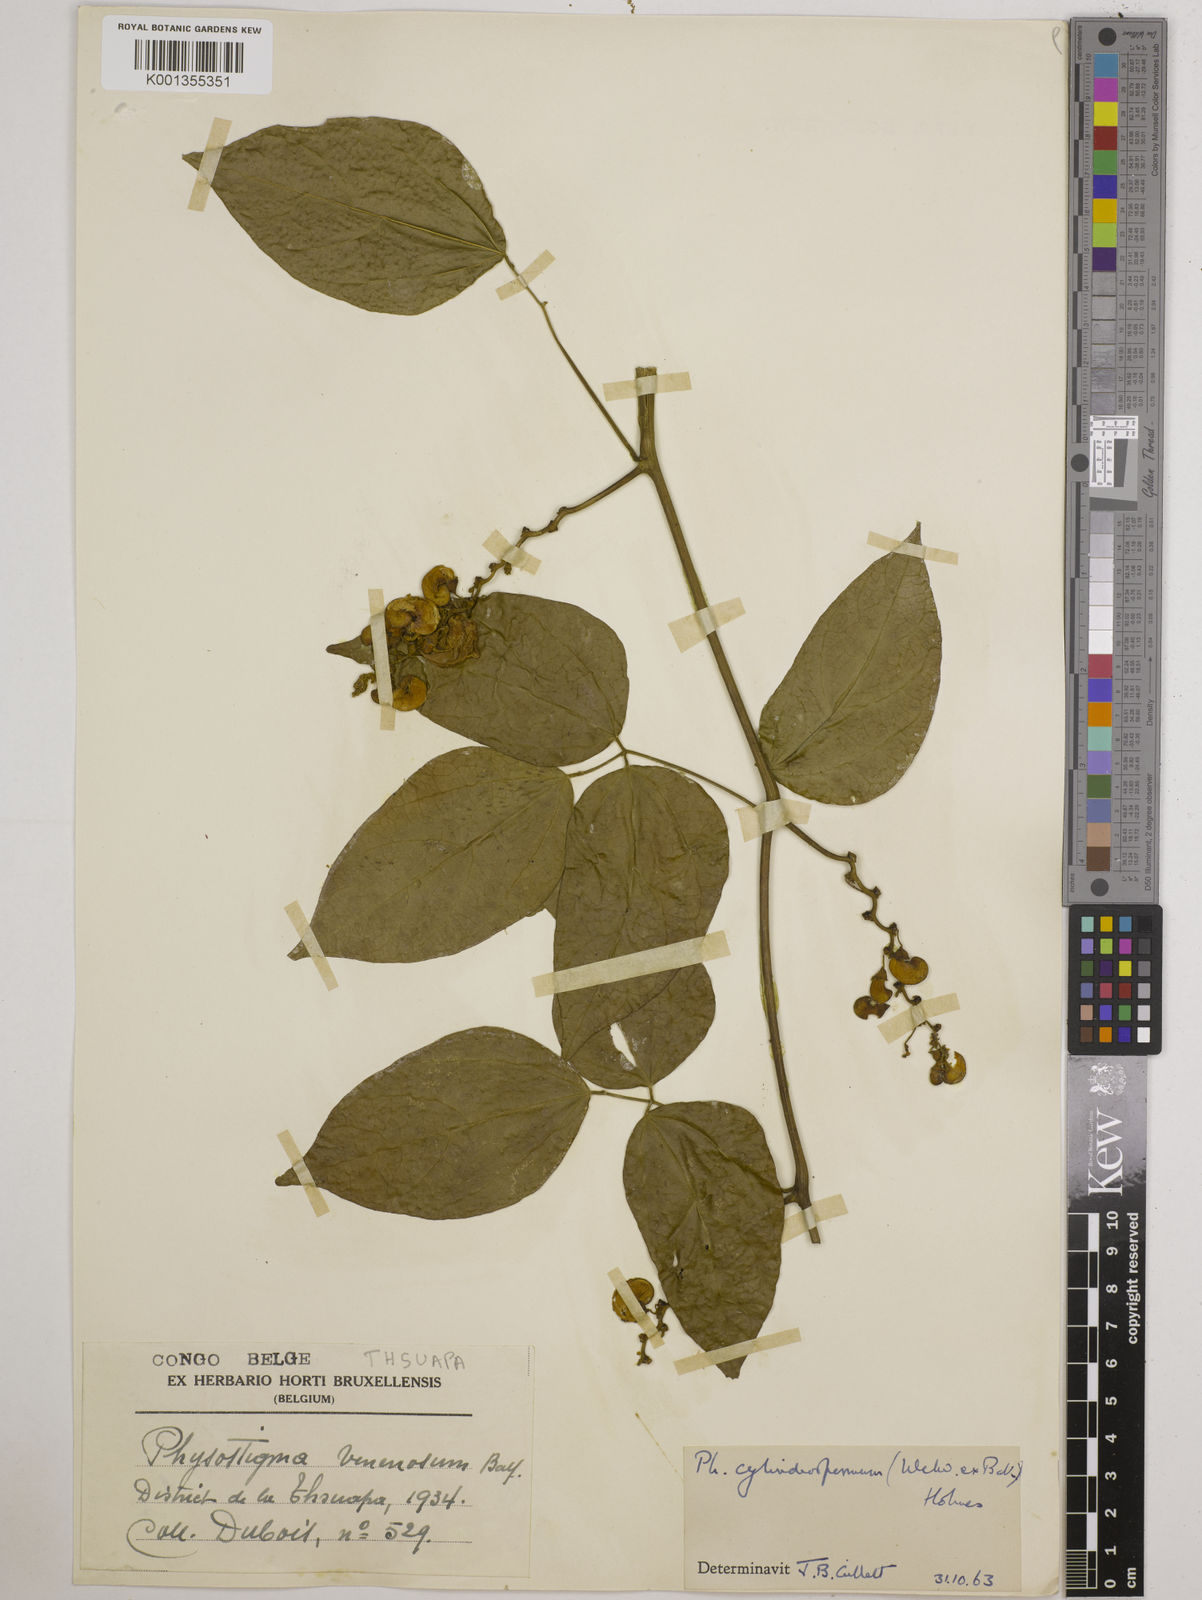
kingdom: Plantae
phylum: Tracheophyta
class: Magnoliopsida
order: Fabales
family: Fabaceae
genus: Physostigma
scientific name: Physostigma cylindrospermum
